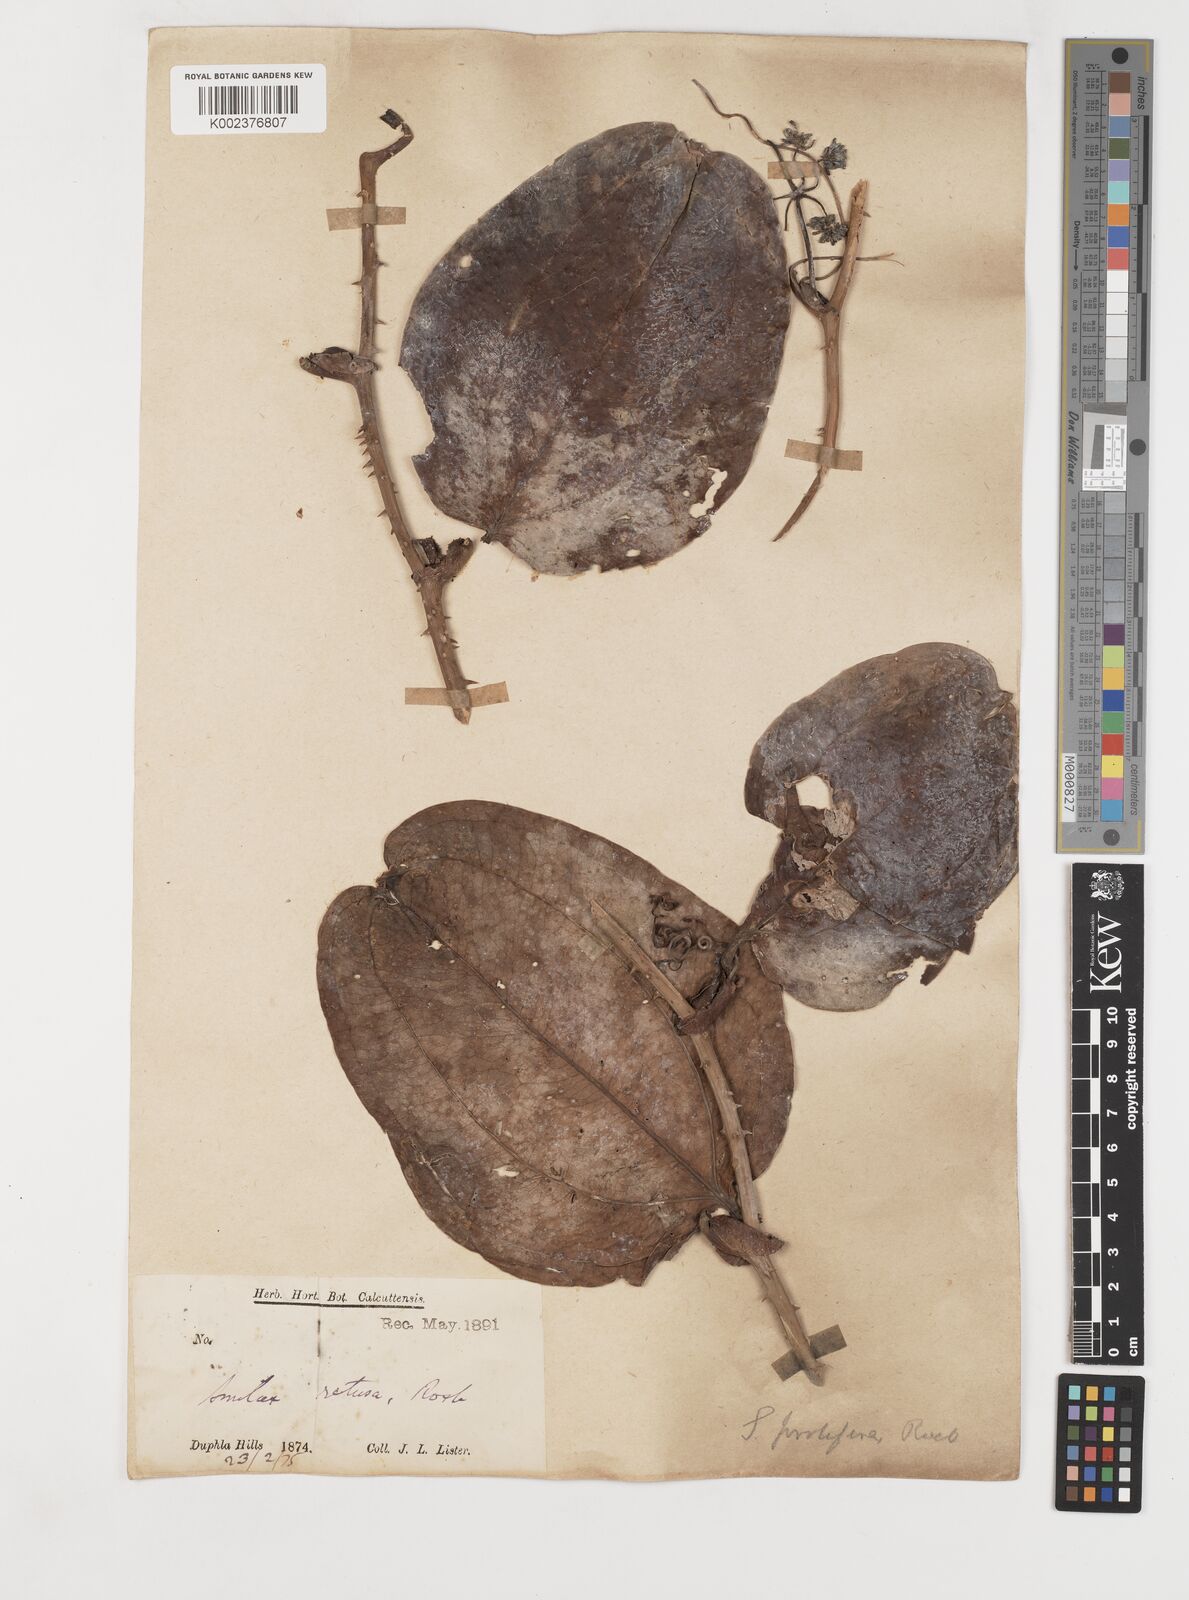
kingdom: Plantae
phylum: Tracheophyta
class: Liliopsida
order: Liliales
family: Smilacaceae
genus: Smilax
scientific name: Smilax prolifera
